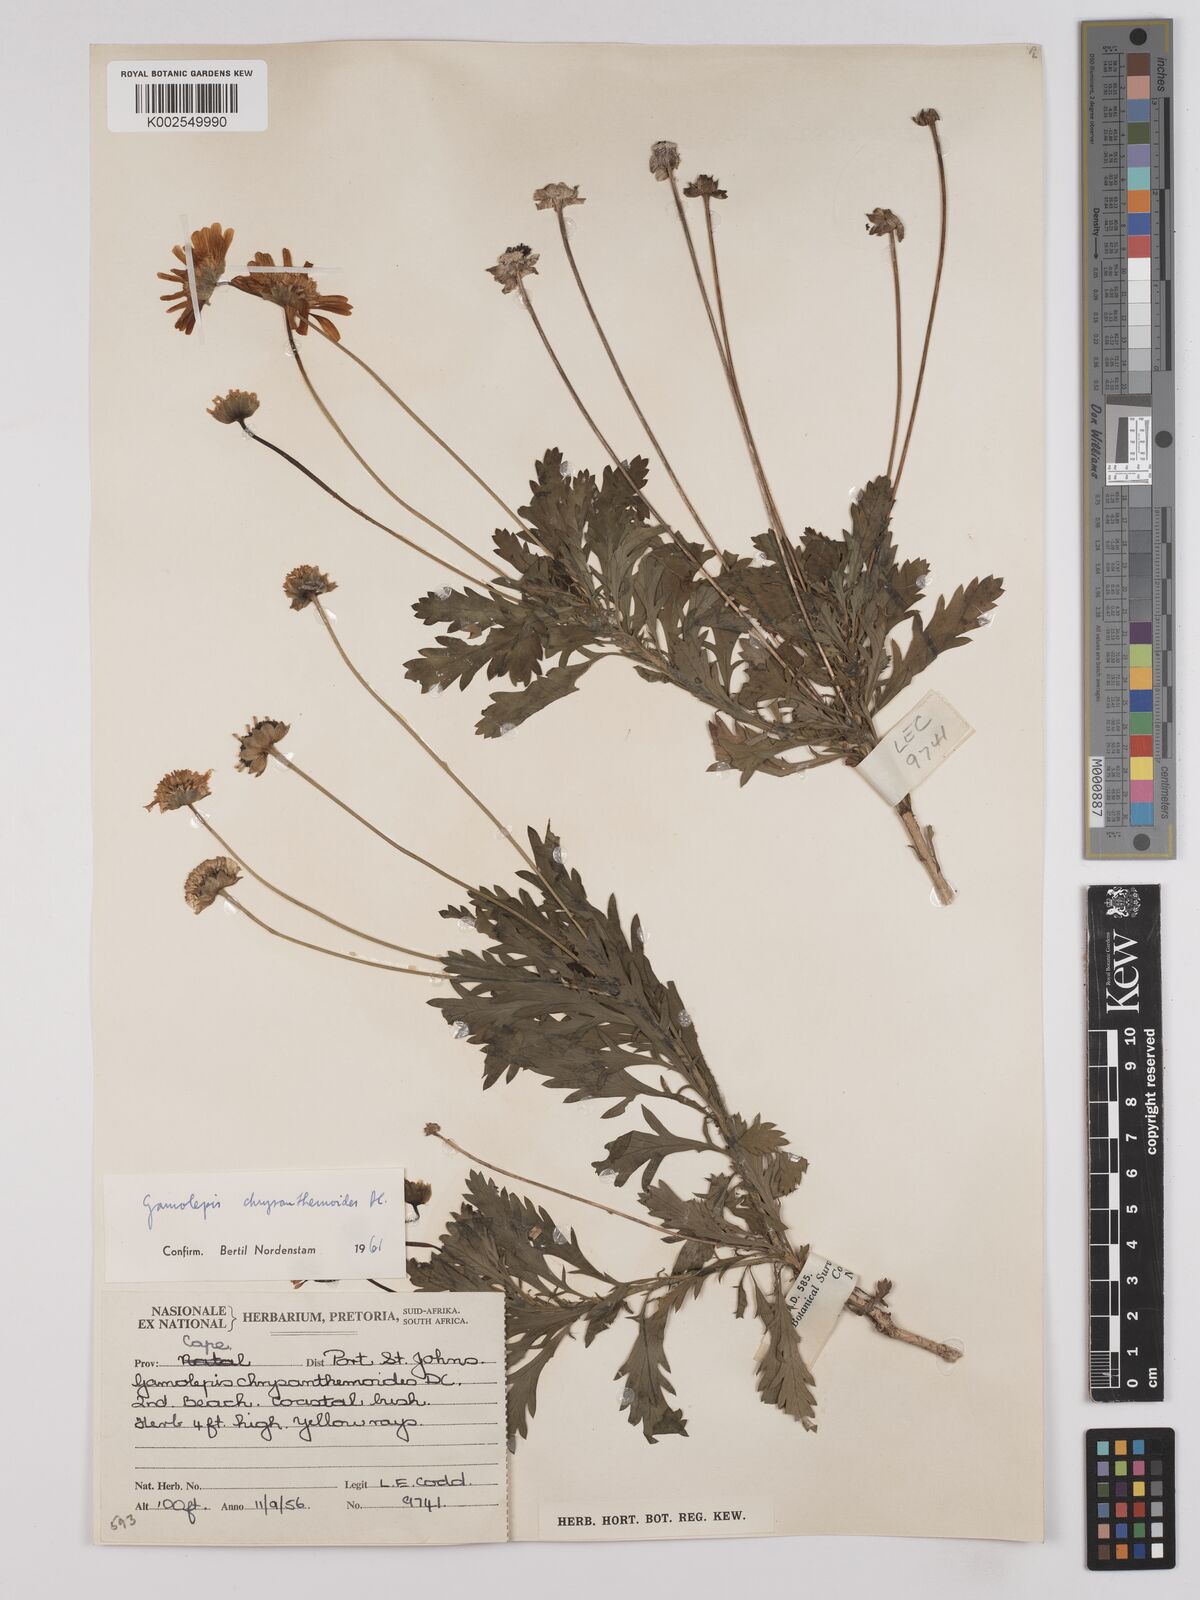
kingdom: Plantae
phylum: Tracheophyta
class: Magnoliopsida
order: Asterales
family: Asteraceae
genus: Euryops
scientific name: Euryops chrysanthemoides
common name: Bull's eye
